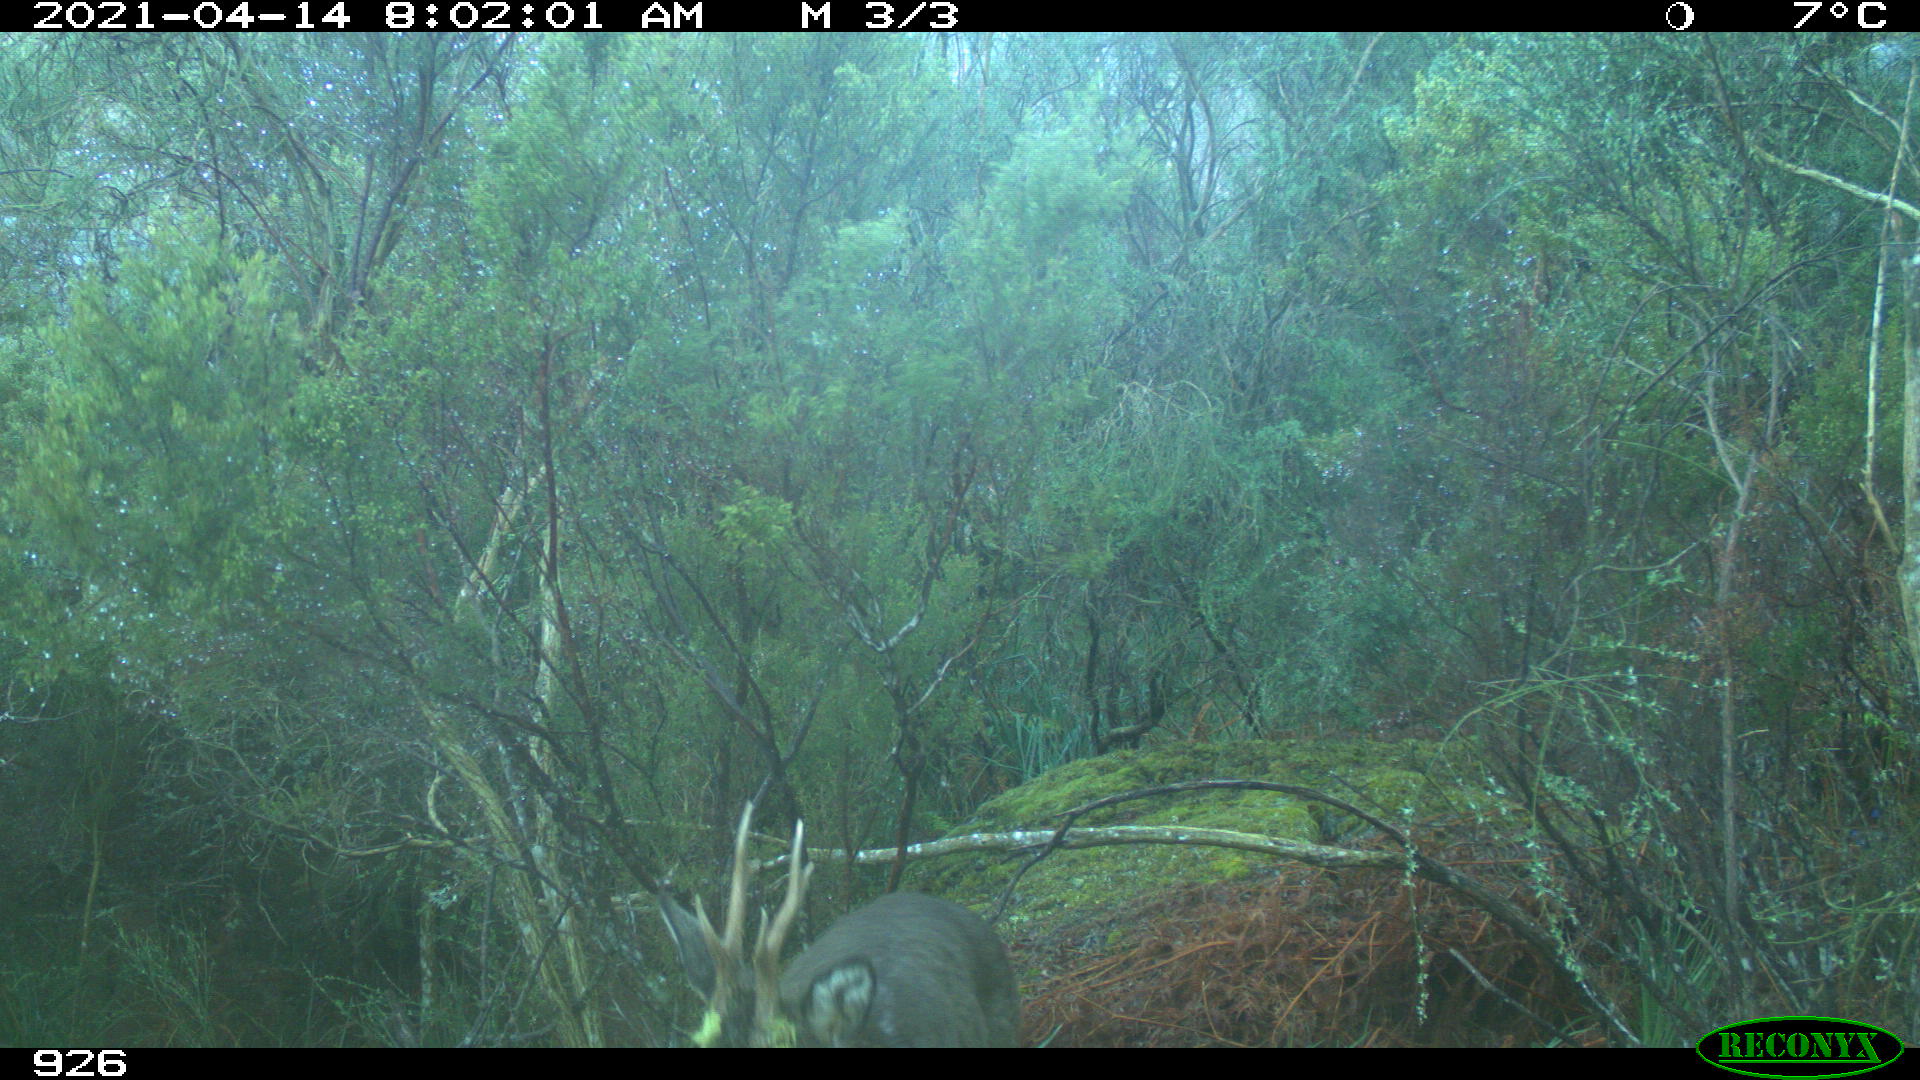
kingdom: Animalia
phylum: Chordata
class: Mammalia
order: Artiodactyla
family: Cervidae
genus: Capreolus
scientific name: Capreolus capreolus
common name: Western roe deer
